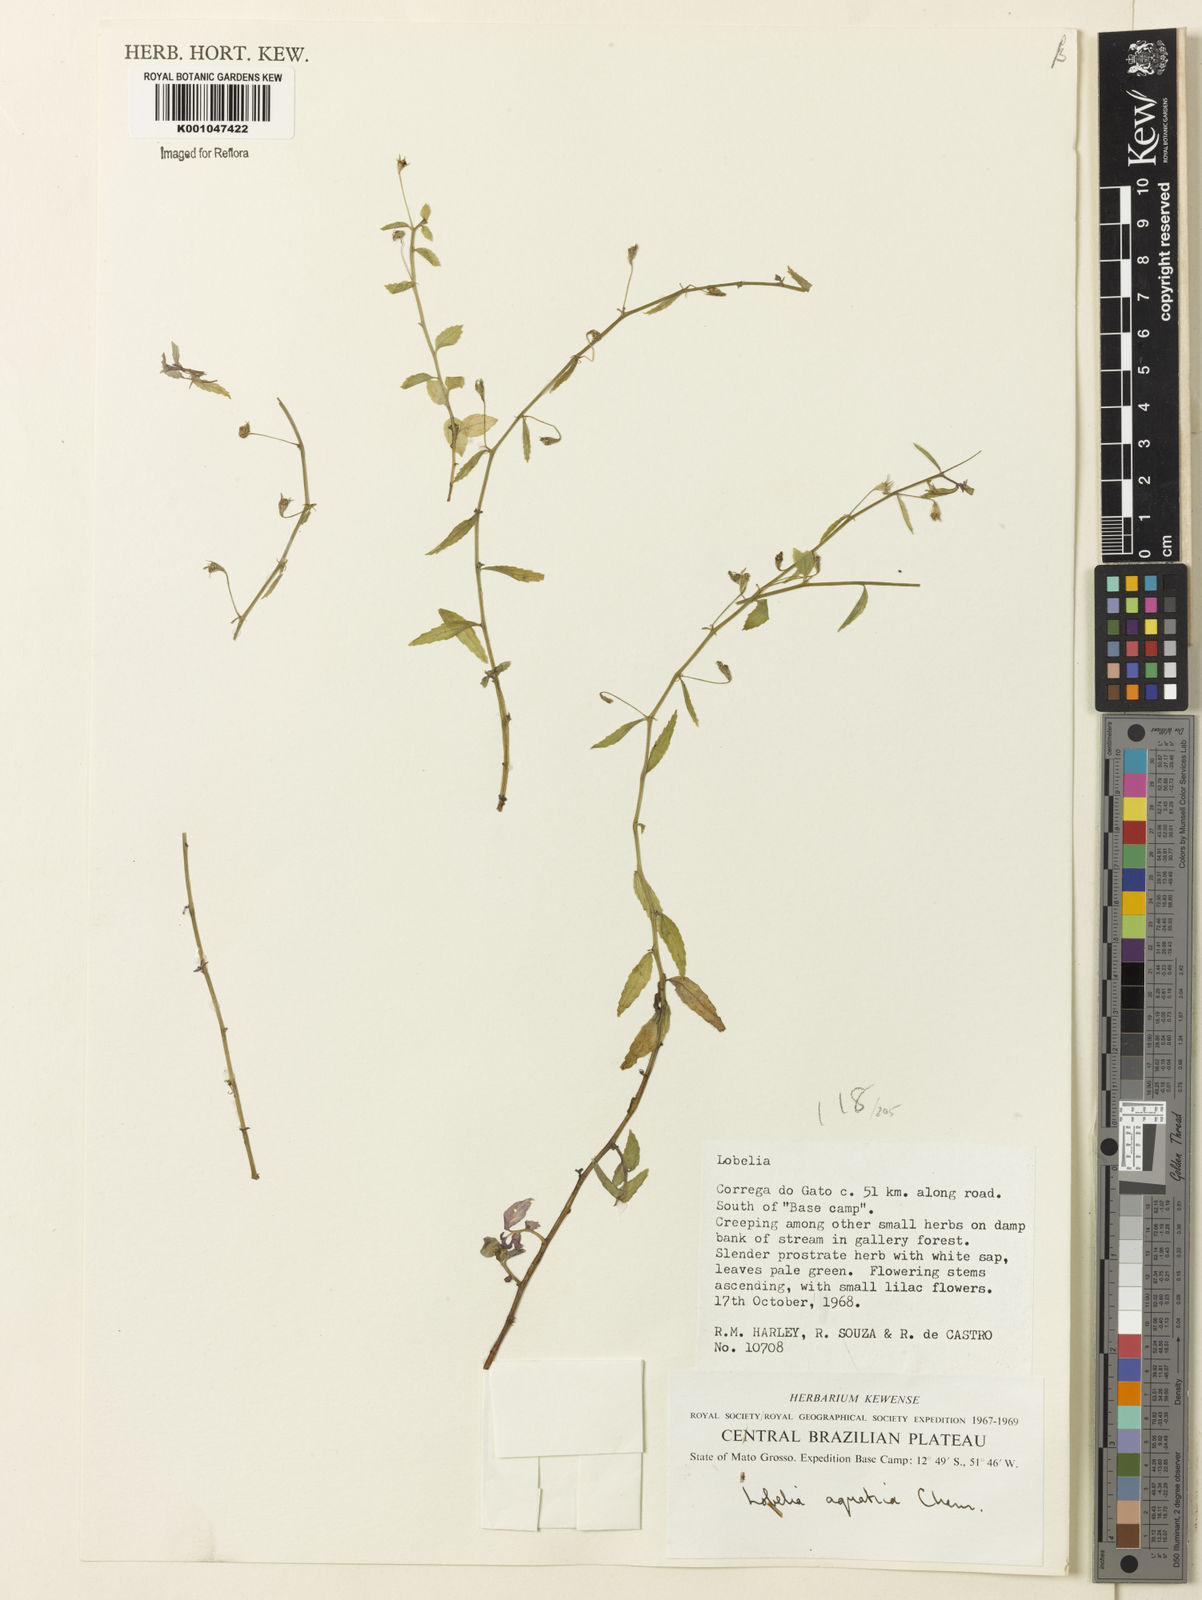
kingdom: Plantae
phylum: Tracheophyta
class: Magnoliopsida
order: Asterales
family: Campanulaceae
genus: Lobelia
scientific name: Lobelia aquatica
